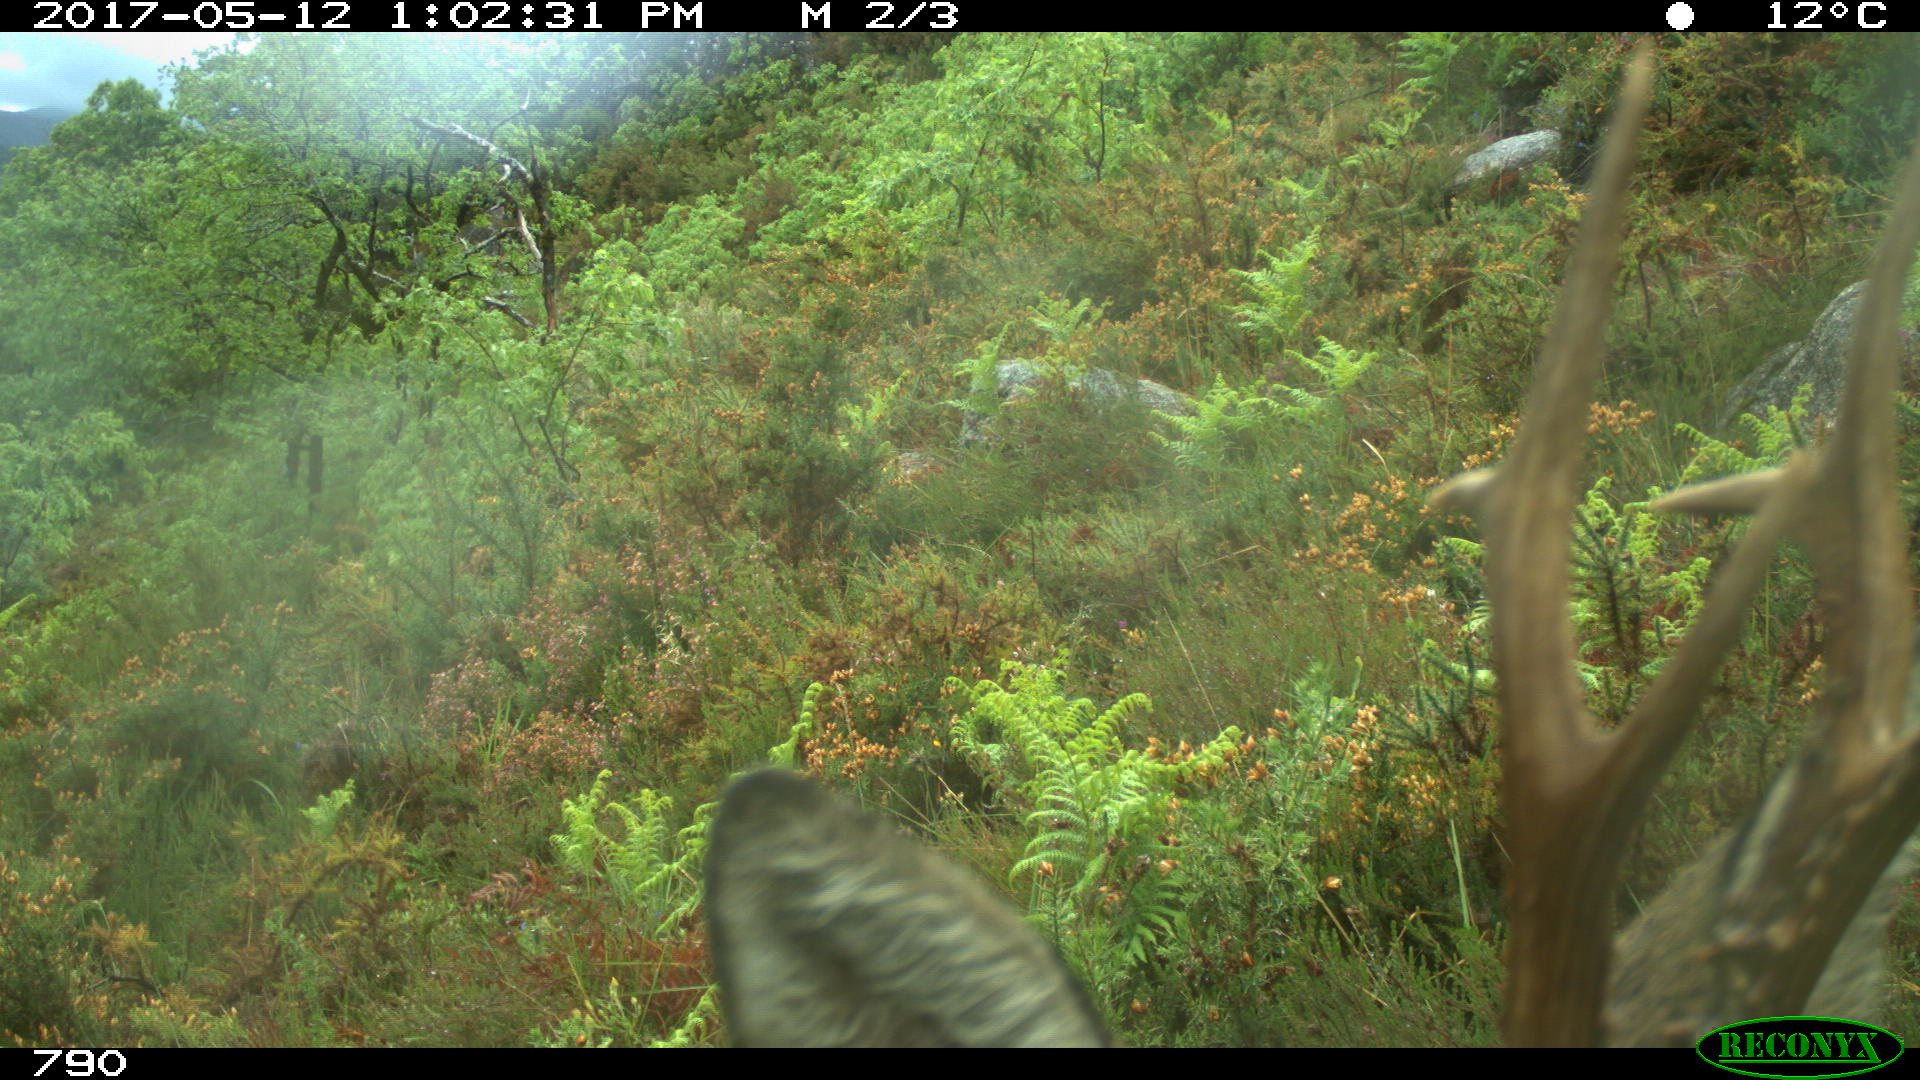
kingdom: Animalia
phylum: Chordata
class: Mammalia
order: Artiodactyla
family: Cervidae
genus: Capreolus
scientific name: Capreolus capreolus
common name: Western roe deer
